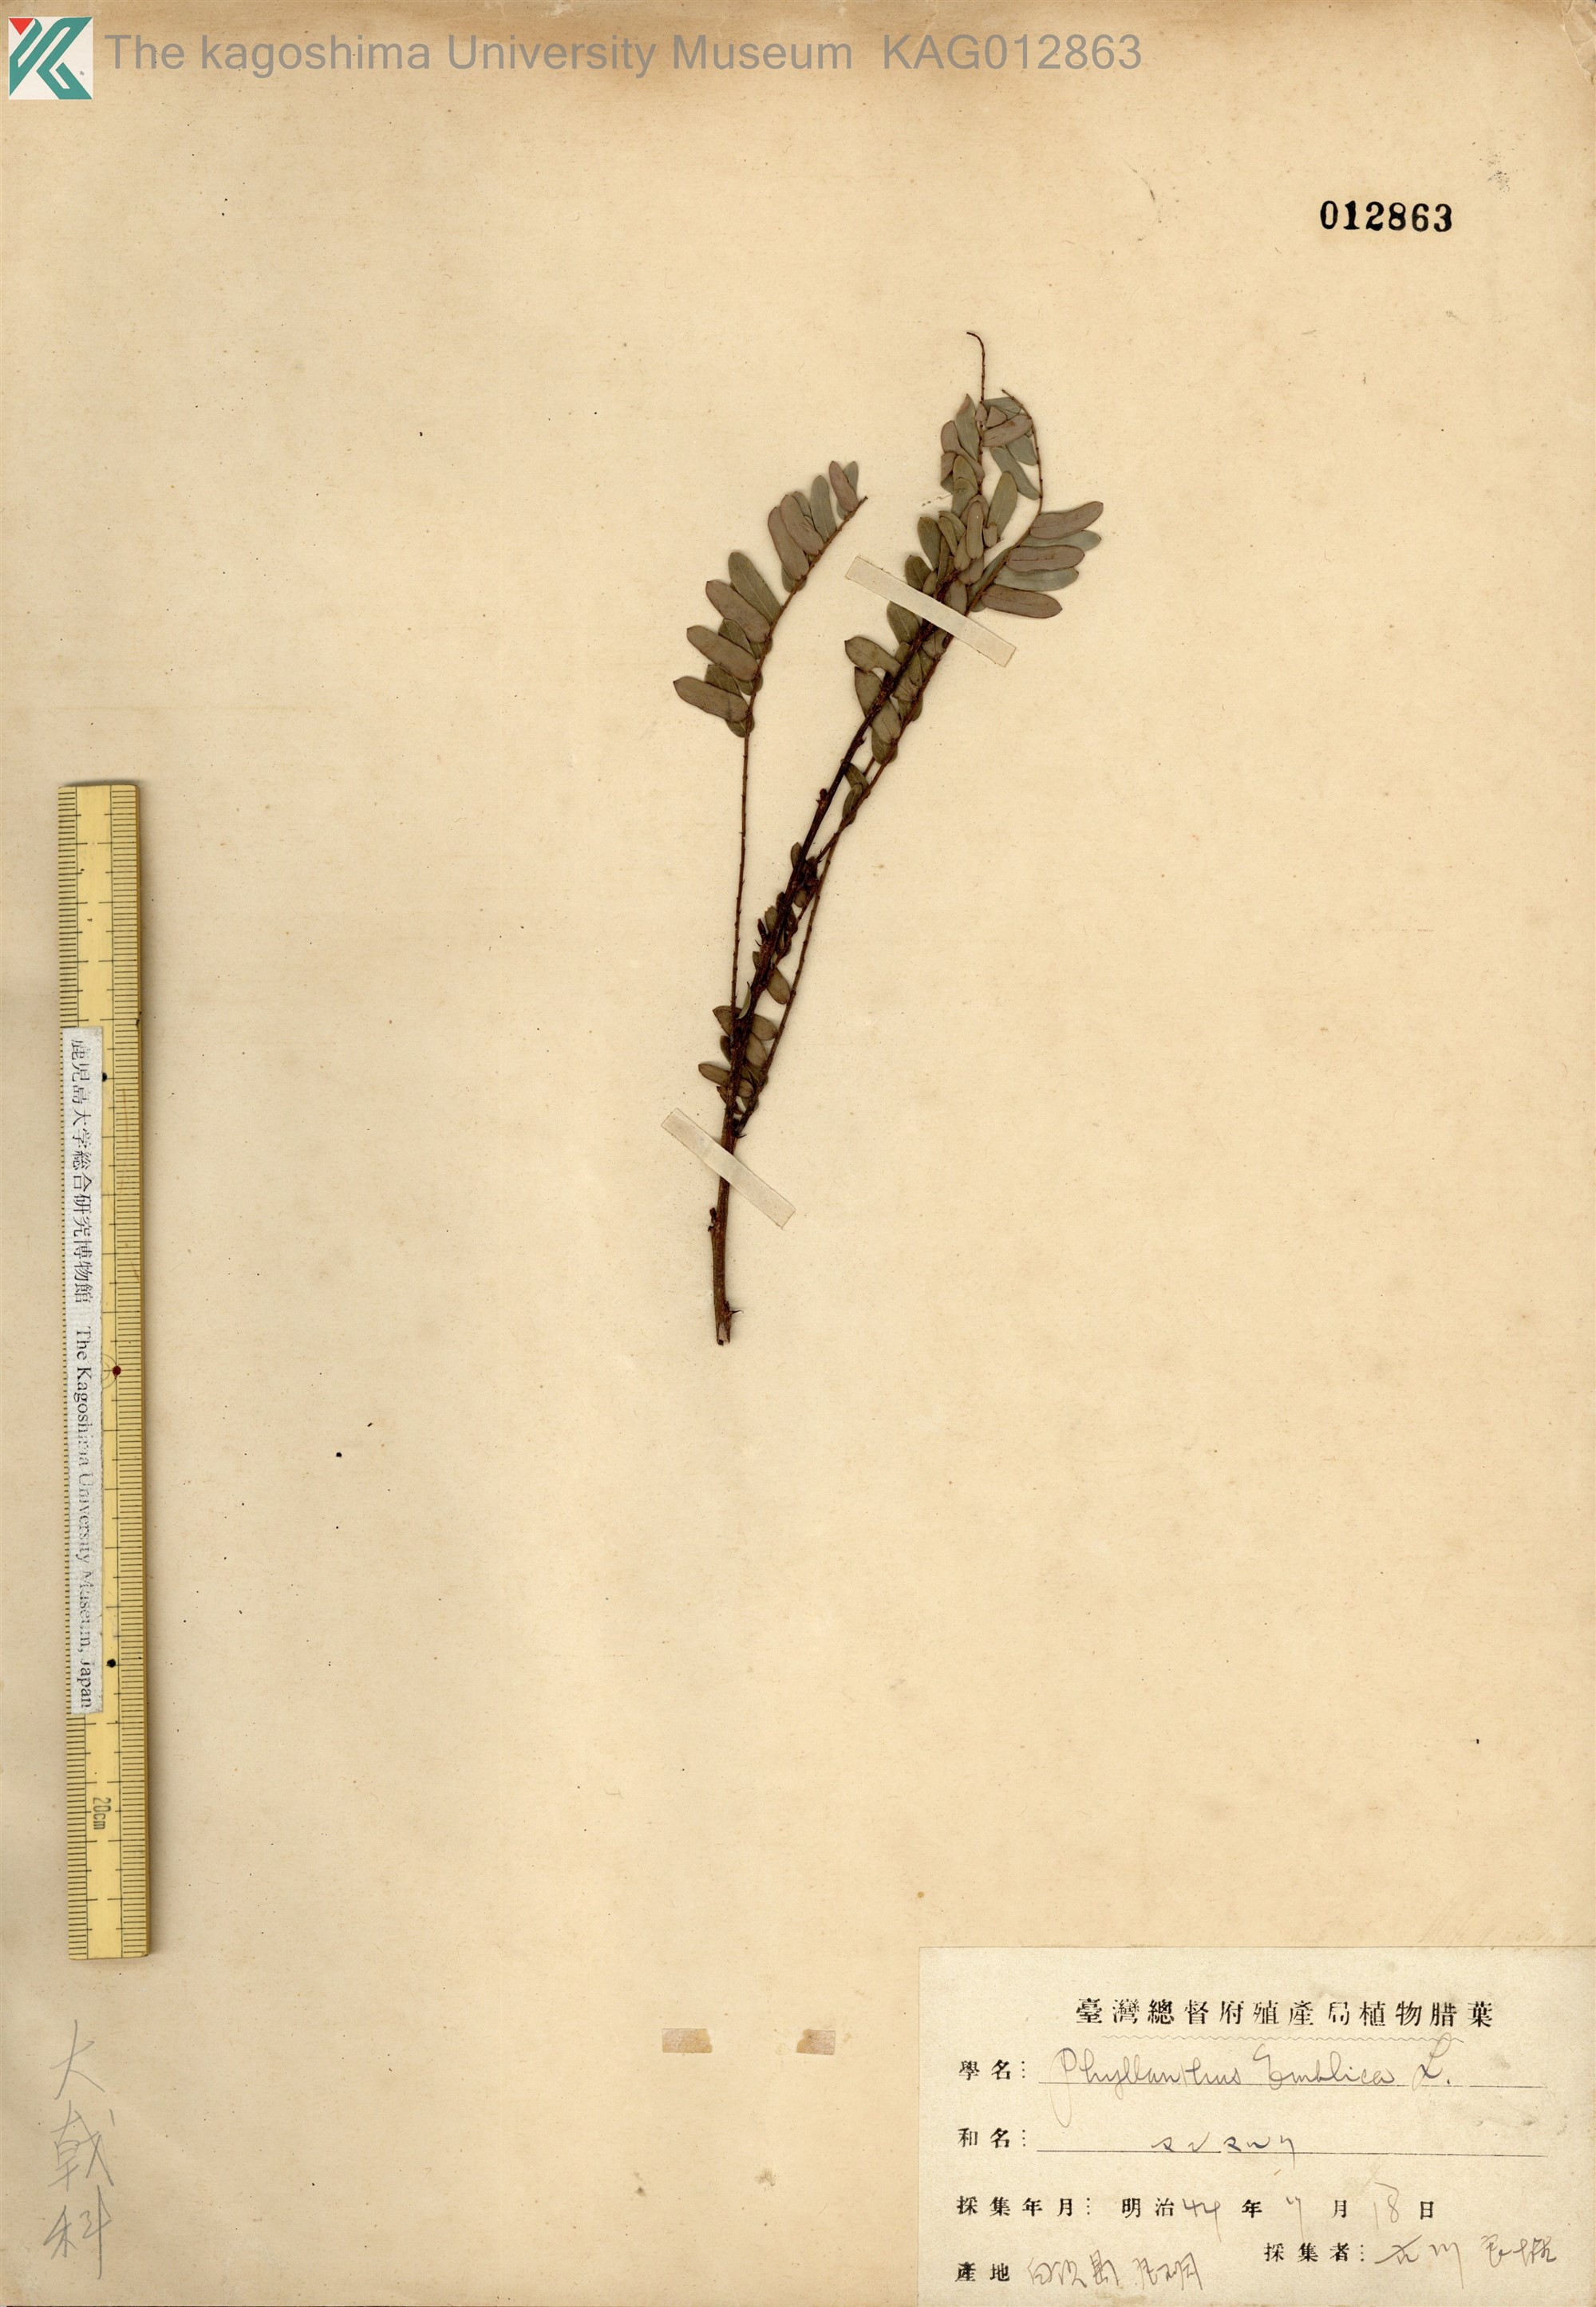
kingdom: Plantae
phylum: Tracheophyta
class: Magnoliopsida
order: Malpighiales
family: Phyllanthaceae
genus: Phyllanthus
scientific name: Phyllanthus emblica
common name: Indian gooseberry
